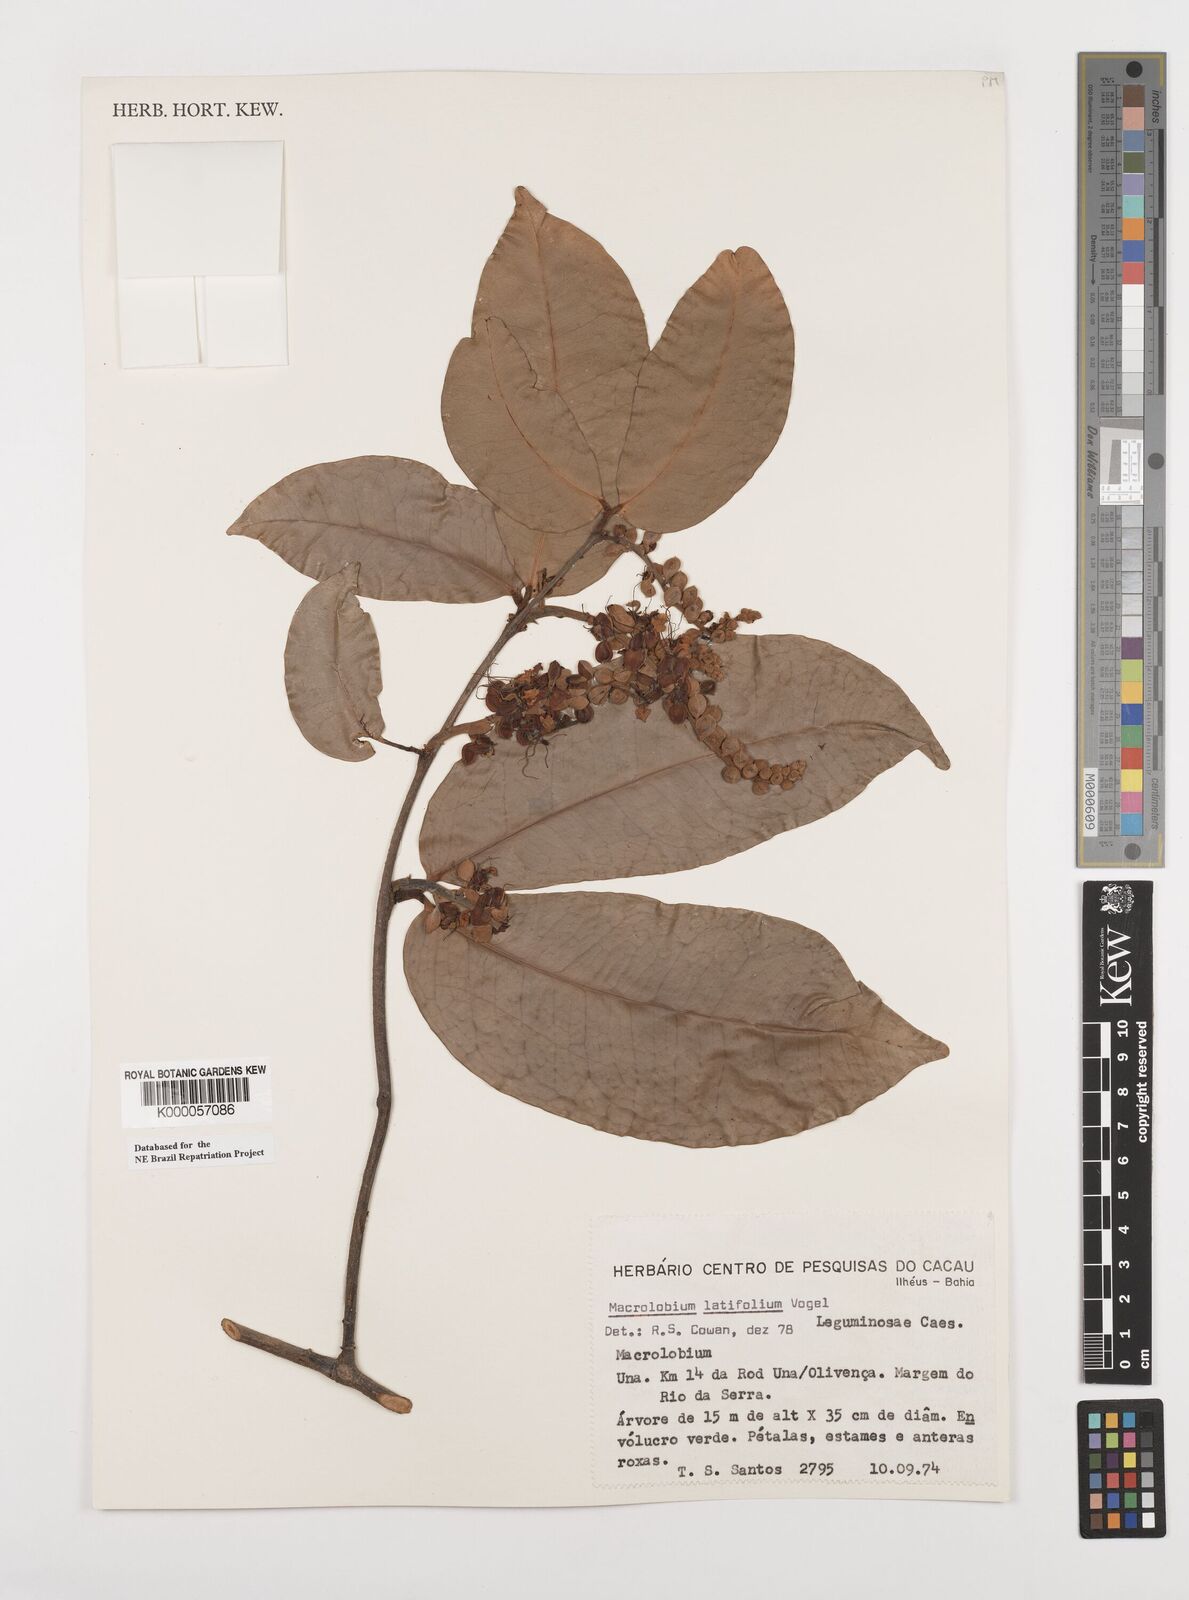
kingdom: Plantae
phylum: Tracheophyta
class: Magnoliopsida
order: Fabales
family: Fabaceae
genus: Macrolobium
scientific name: Macrolobium latifolium
